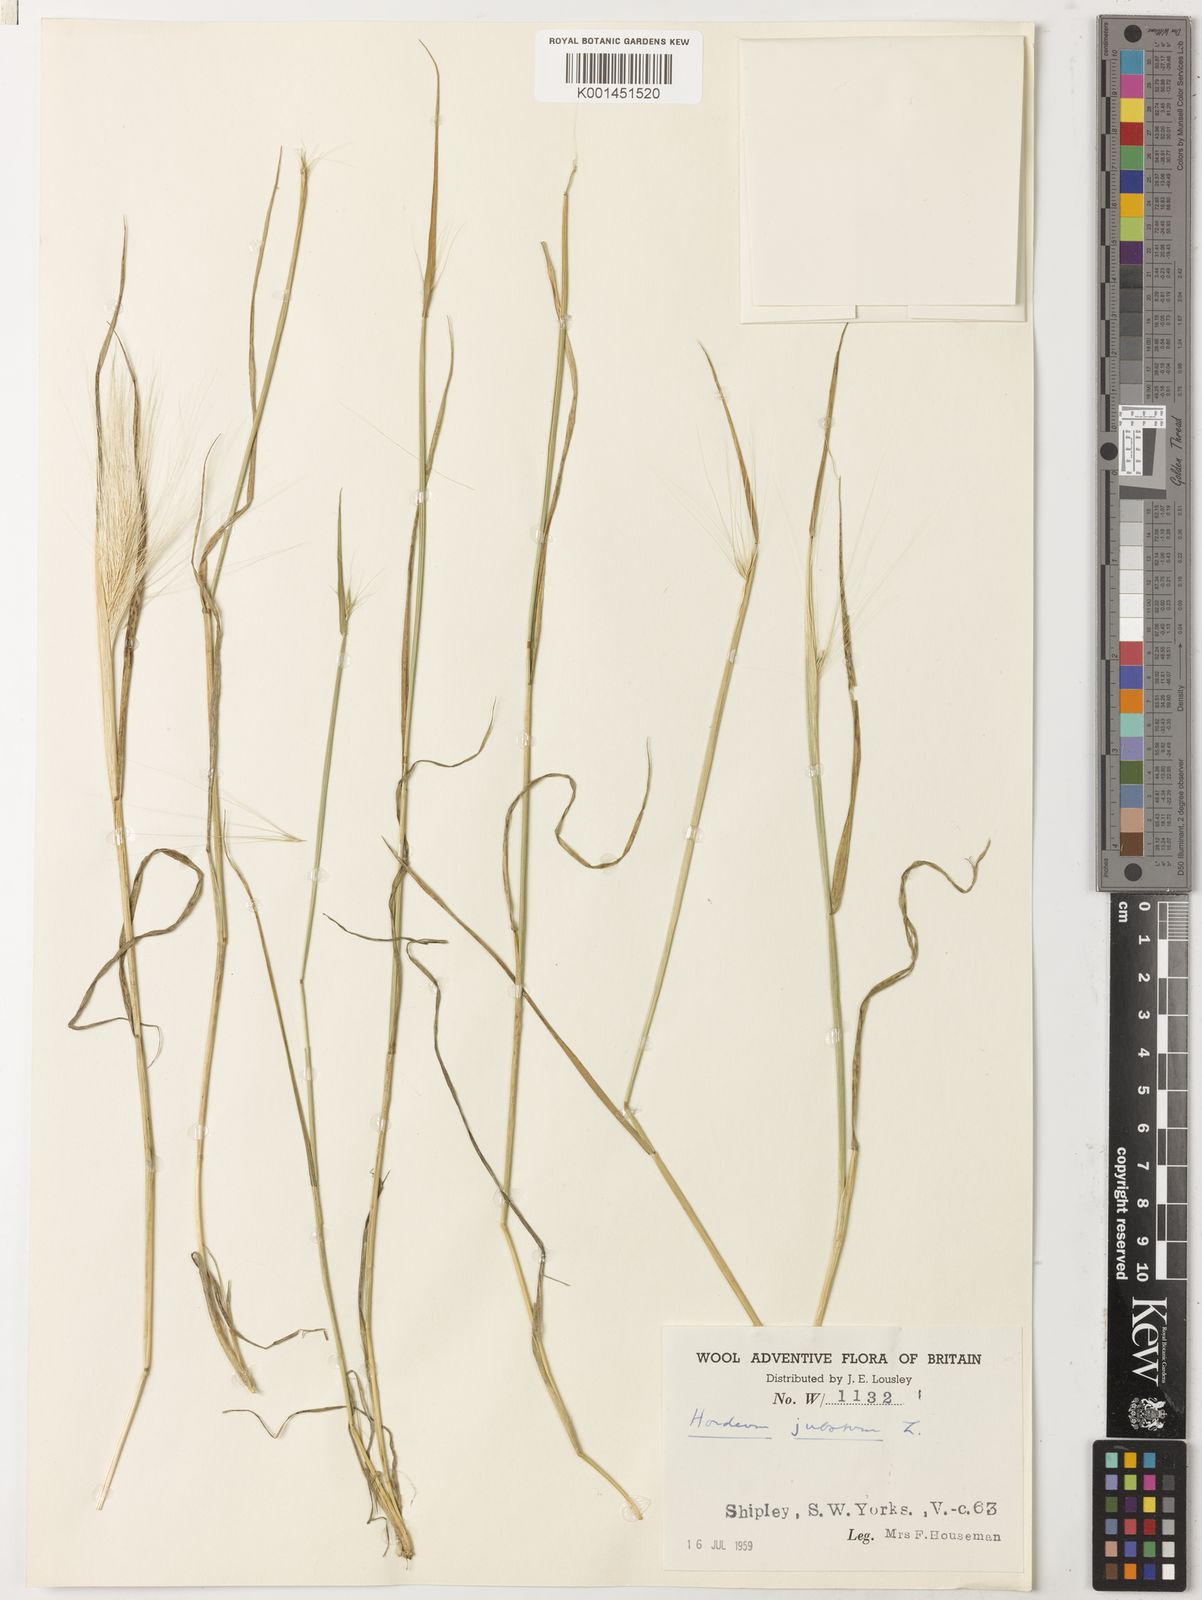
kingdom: Plantae
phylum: Tracheophyta
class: Liliopsida
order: Poales
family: Poaceae
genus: Hordeum
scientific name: Hordeum jubatum
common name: Foxtail barley
